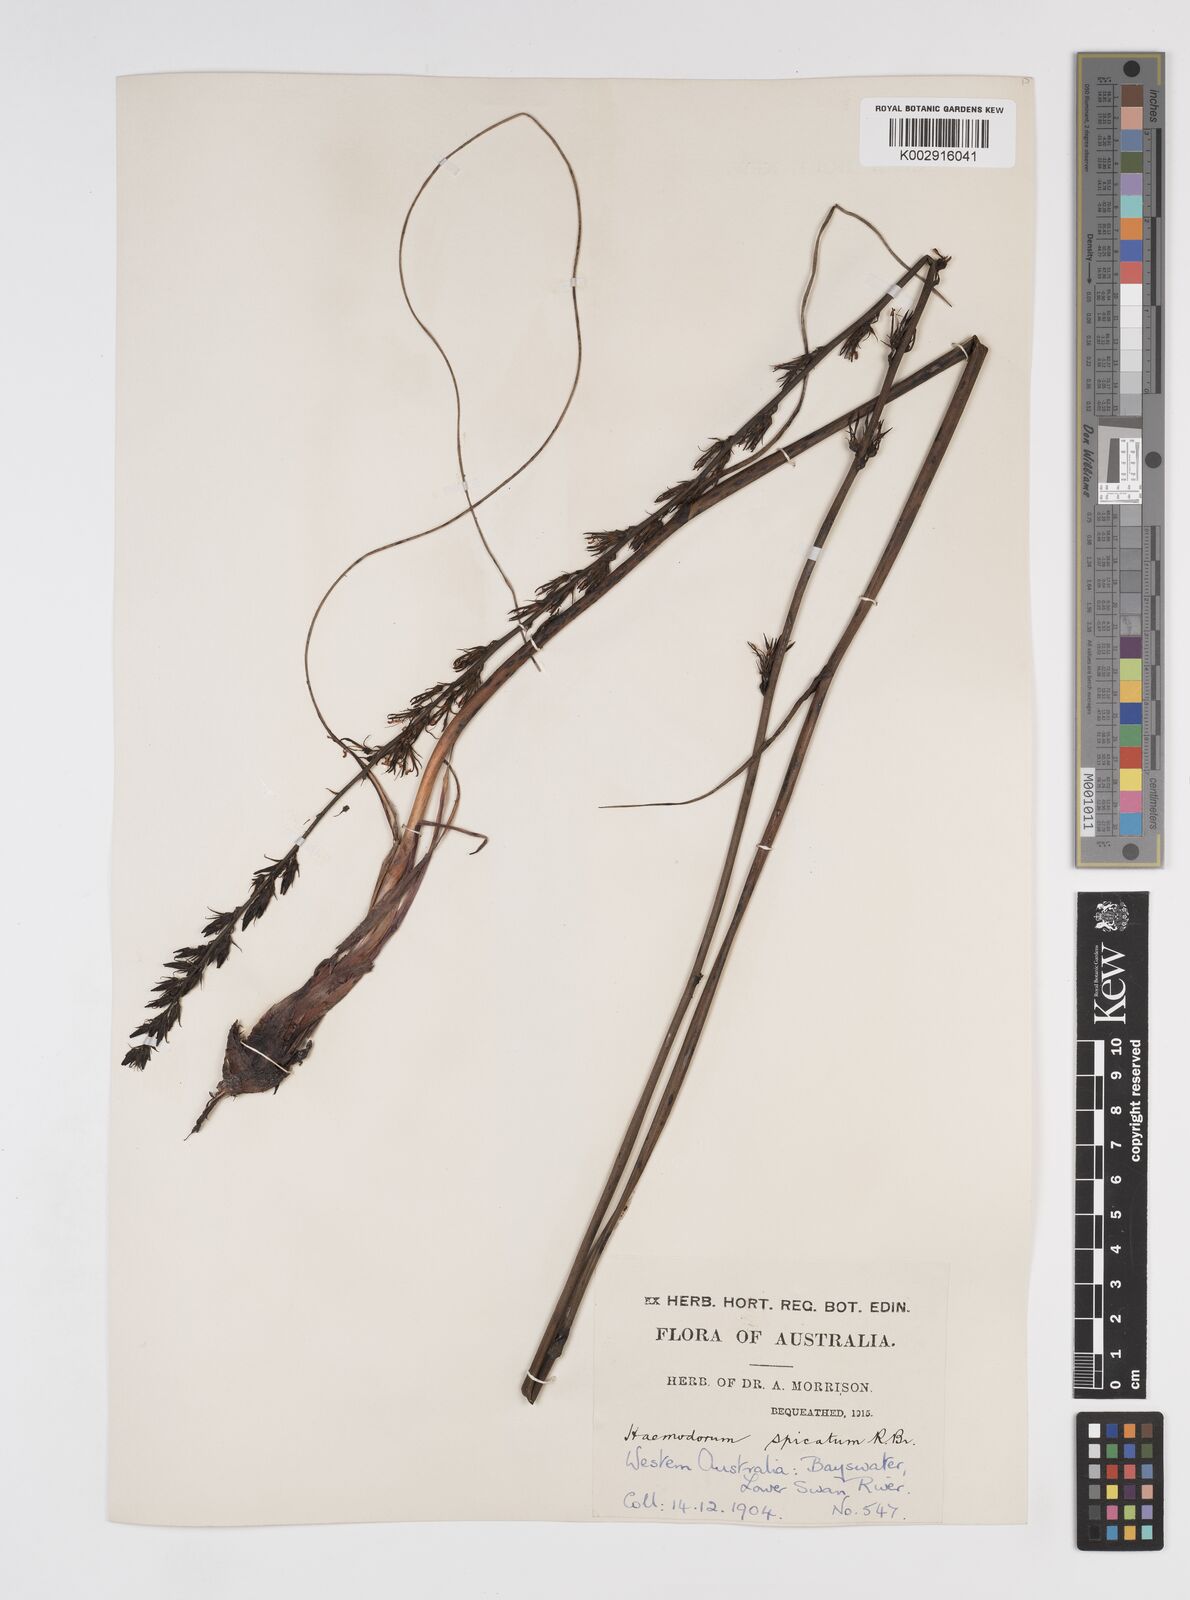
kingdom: Plantae
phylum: Tracheophyta
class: Liliopsida
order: Commelinales
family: Haemodoraceae
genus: Haemodorum
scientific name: Haemodorum spicatum
